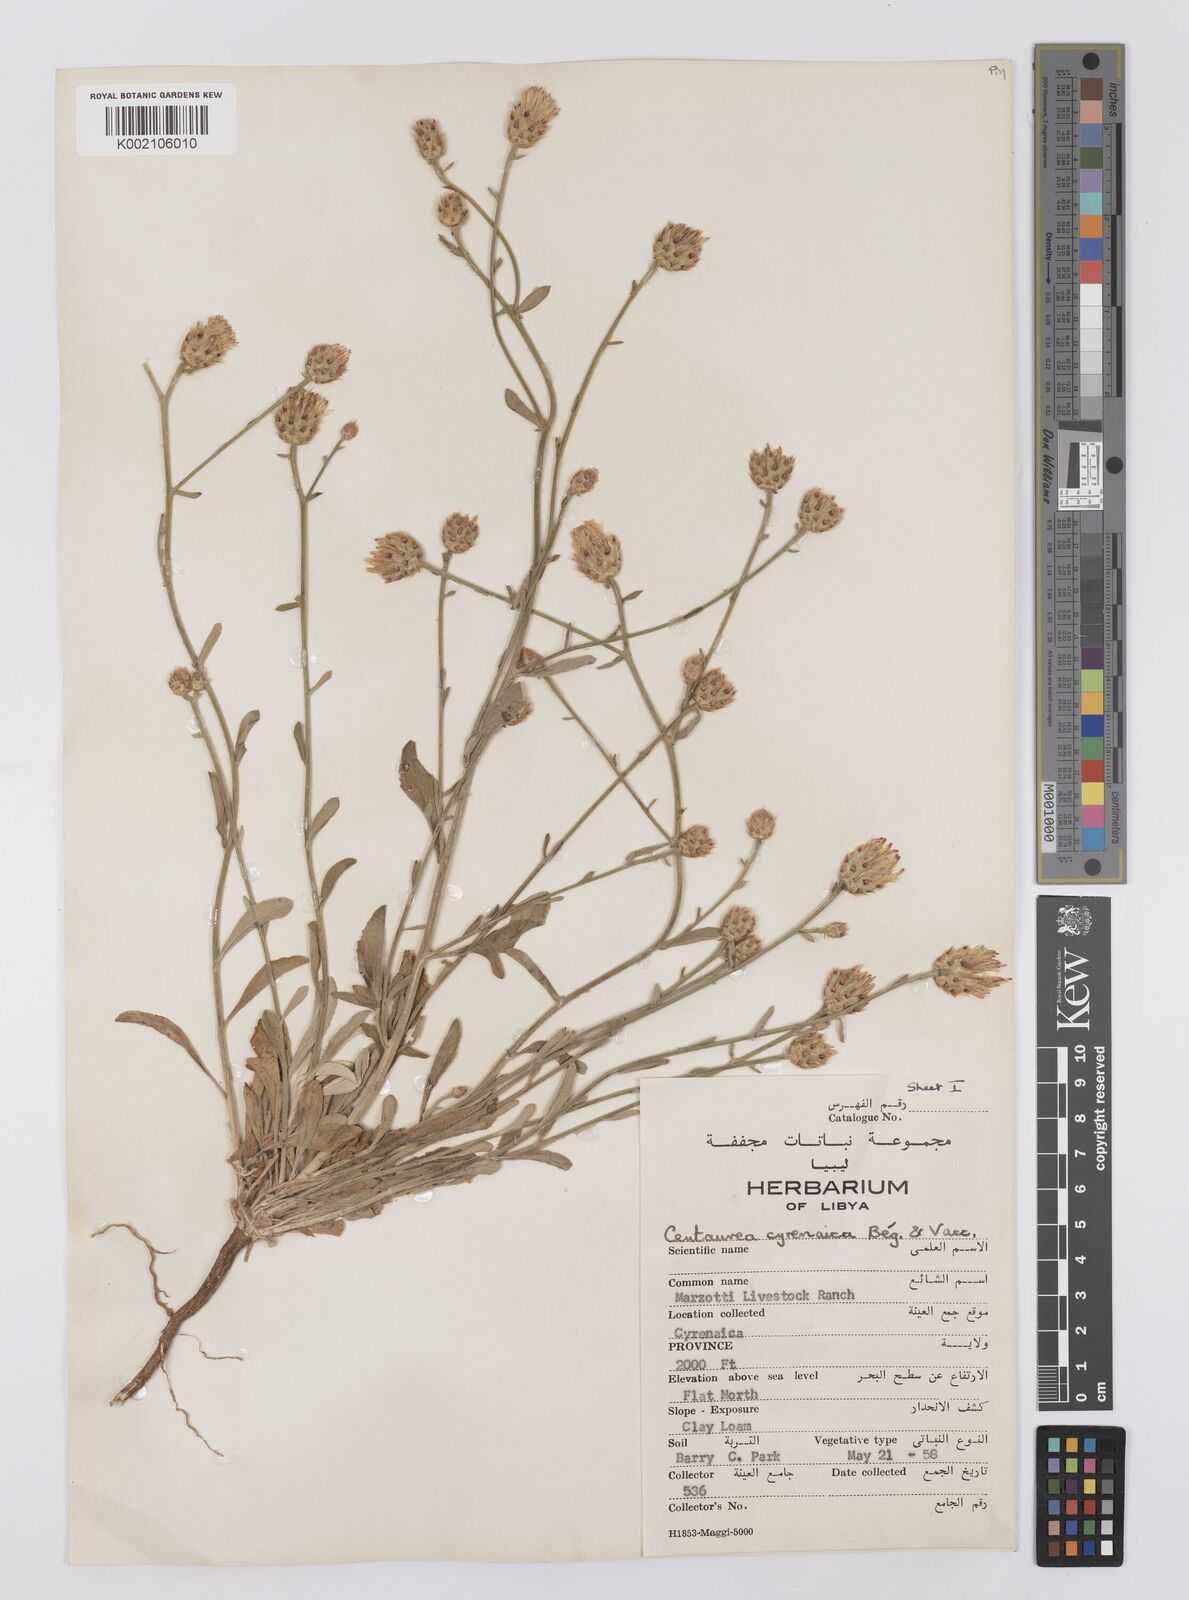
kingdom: Plantae
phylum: Tracheophyta
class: Magnoliopsida
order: Asterales
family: Asteraceae
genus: Centaurea
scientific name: Centaurea cyrenaica
